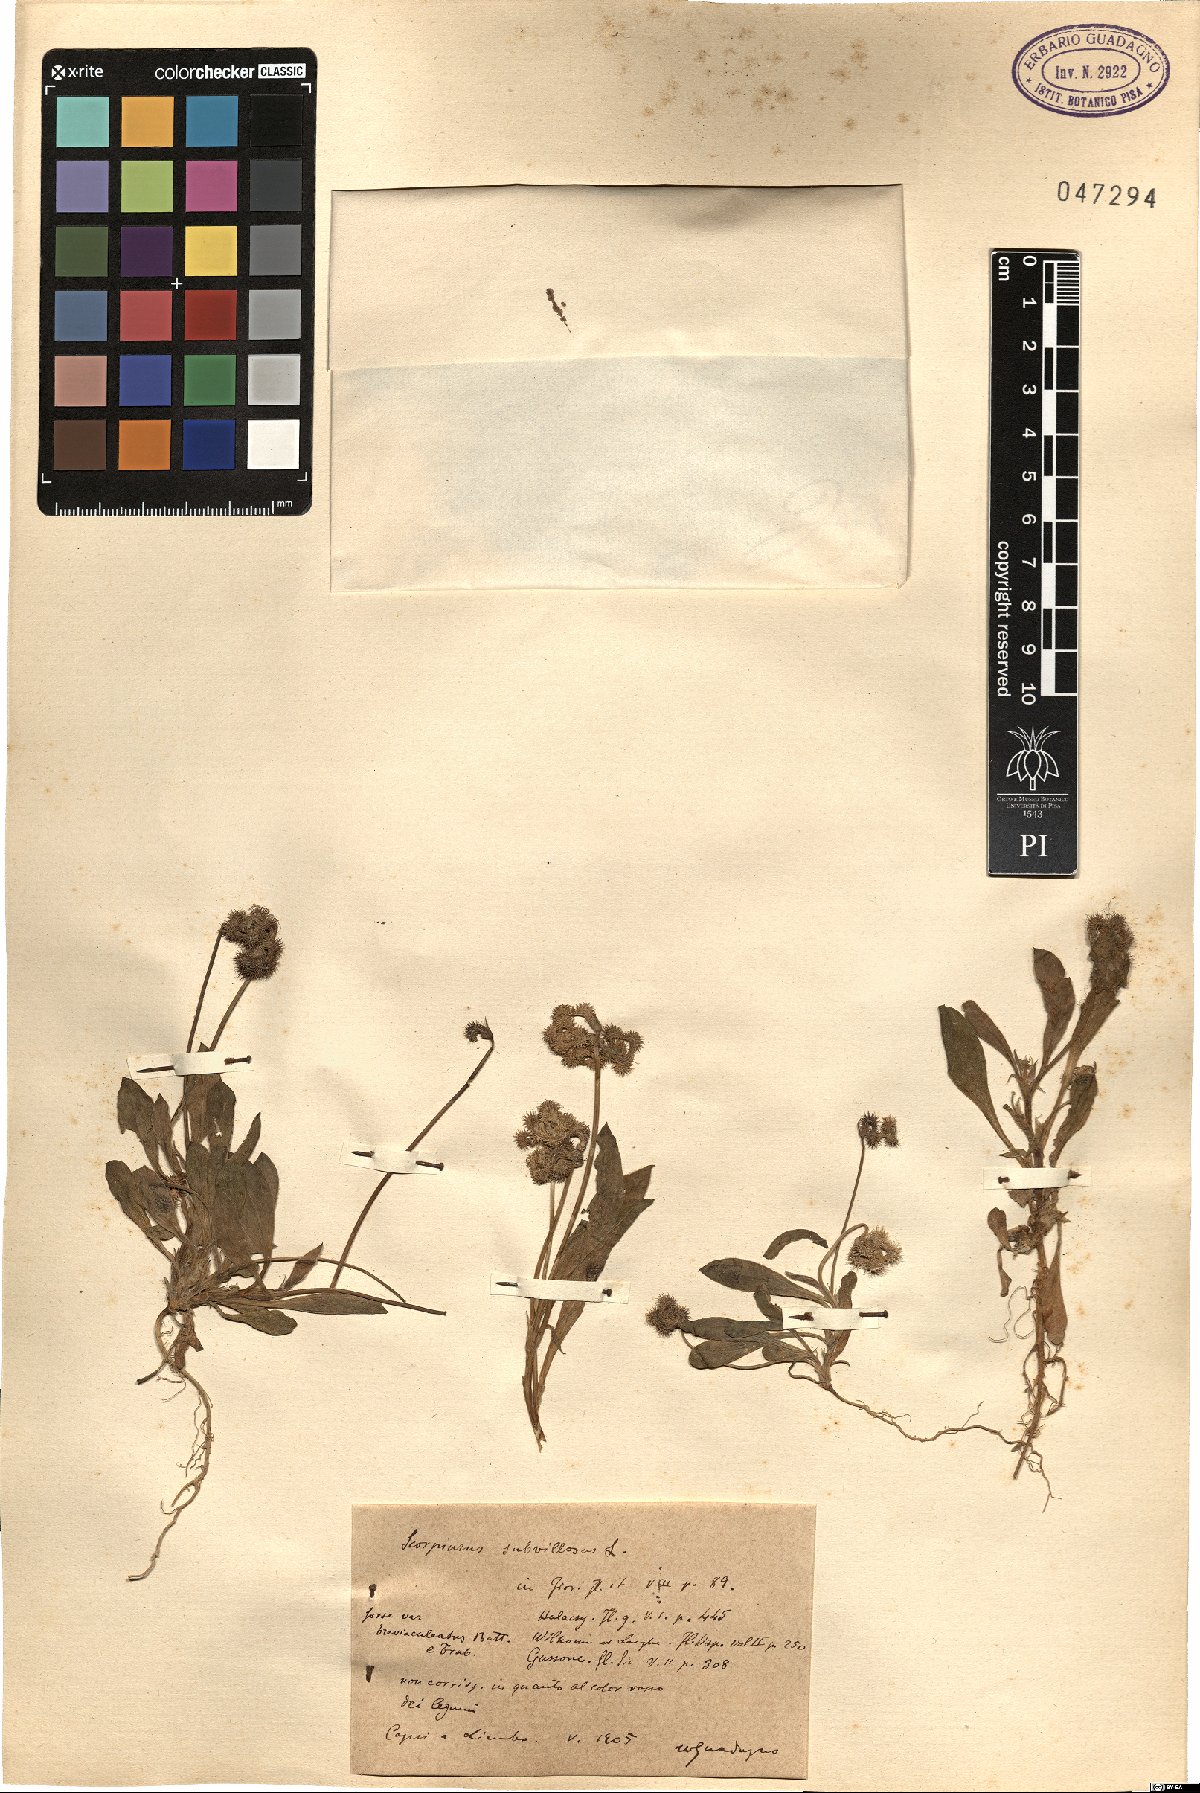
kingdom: Plantae
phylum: Tracheophyta
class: Magnoliopsida
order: Fabales
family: Fabaceae
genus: Scorpiurus
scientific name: Scorpiurus muricatus
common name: Caterpillar-plant
